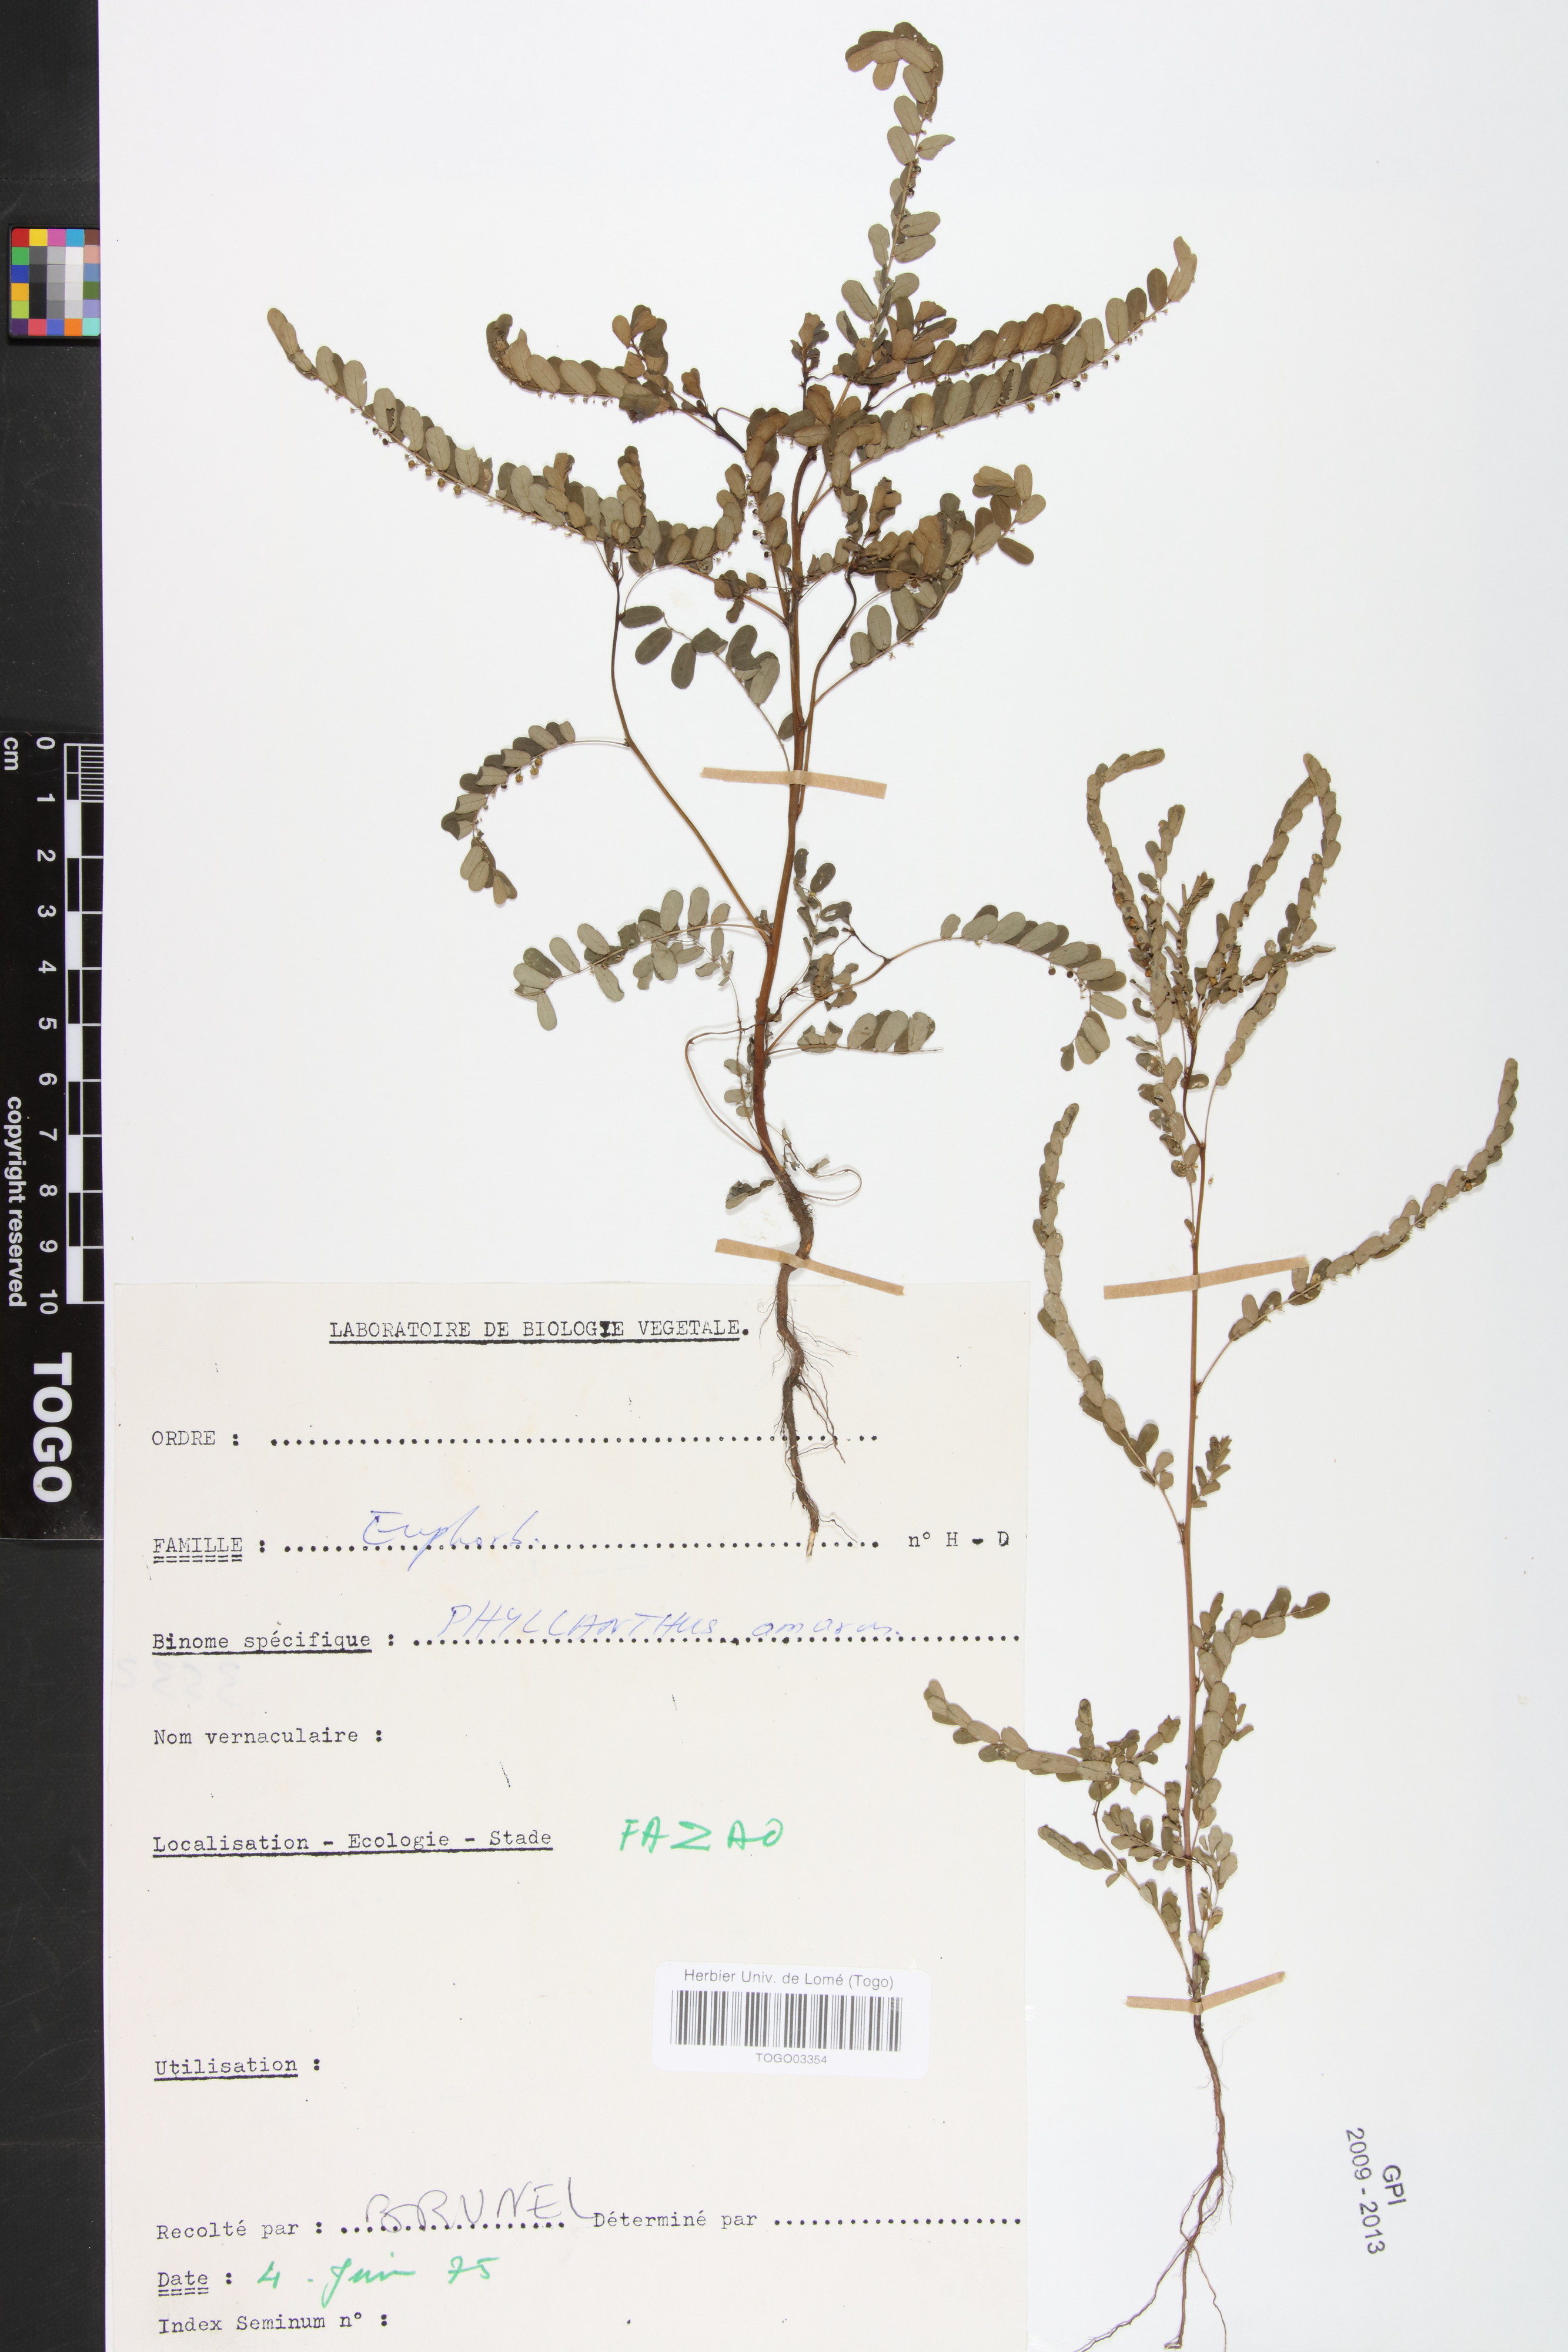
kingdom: Plantae
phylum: Tracheophyta
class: Magnoliopsida
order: Malpighiales
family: Phyllanthaceae
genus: Phyllanthus
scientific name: Phyllanthus amarus
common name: Carry me seed
